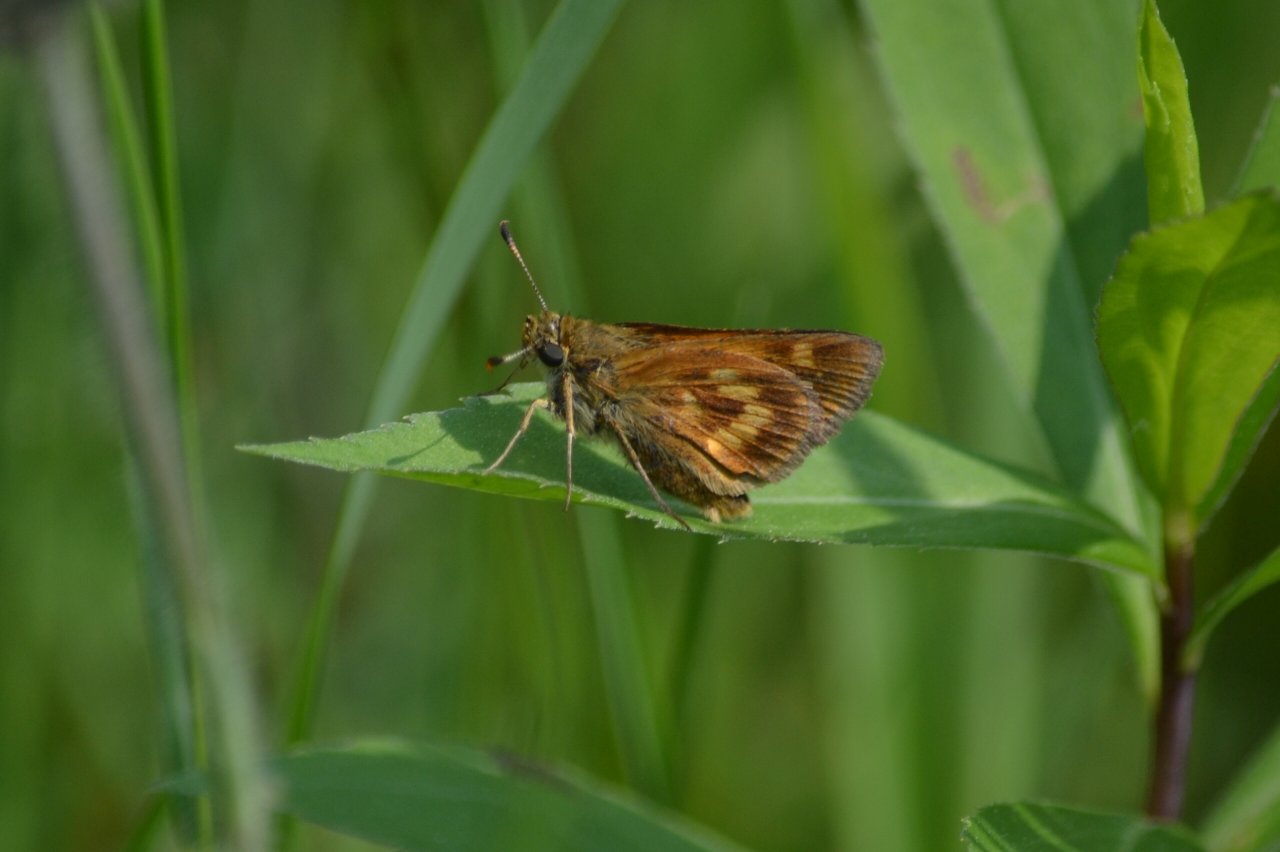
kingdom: Animalia
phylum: Arthropoda
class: Insecta
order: Lepidoptera
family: Hesperiidae
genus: Polites
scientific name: Polites
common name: Long Dash Skipper
